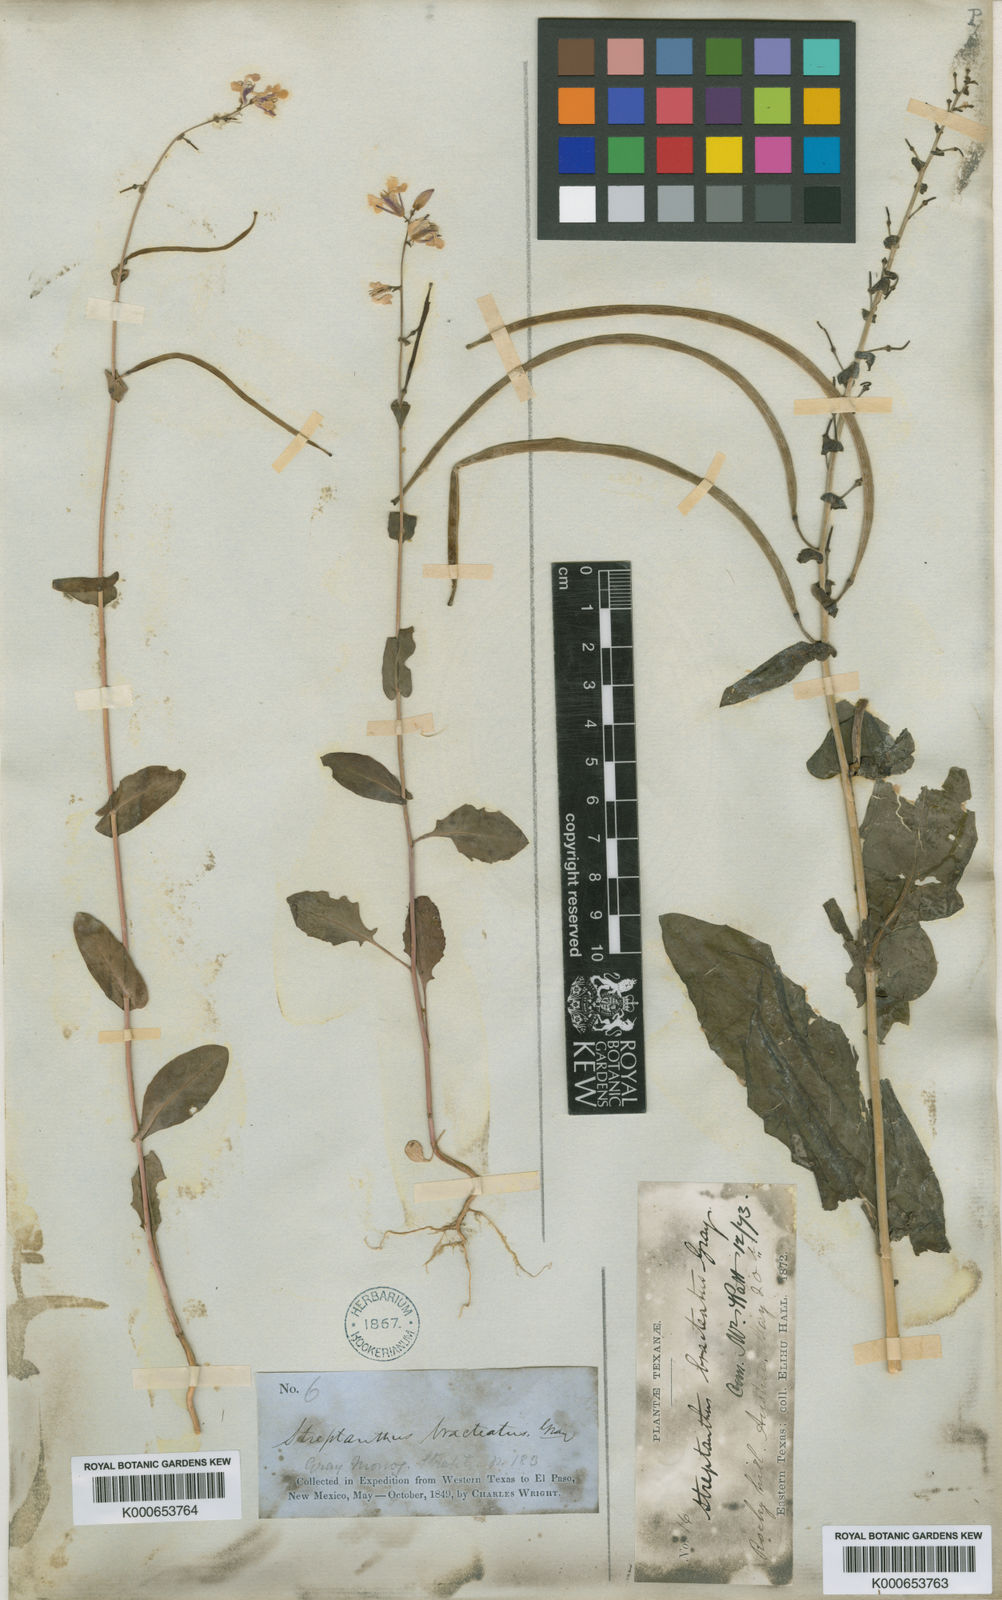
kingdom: Plantae
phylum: Tracheophyta
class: Magnoliopsida
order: Brassicales
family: Brassicaceae
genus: Streptanthus
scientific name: Streptanthus bracteatus
